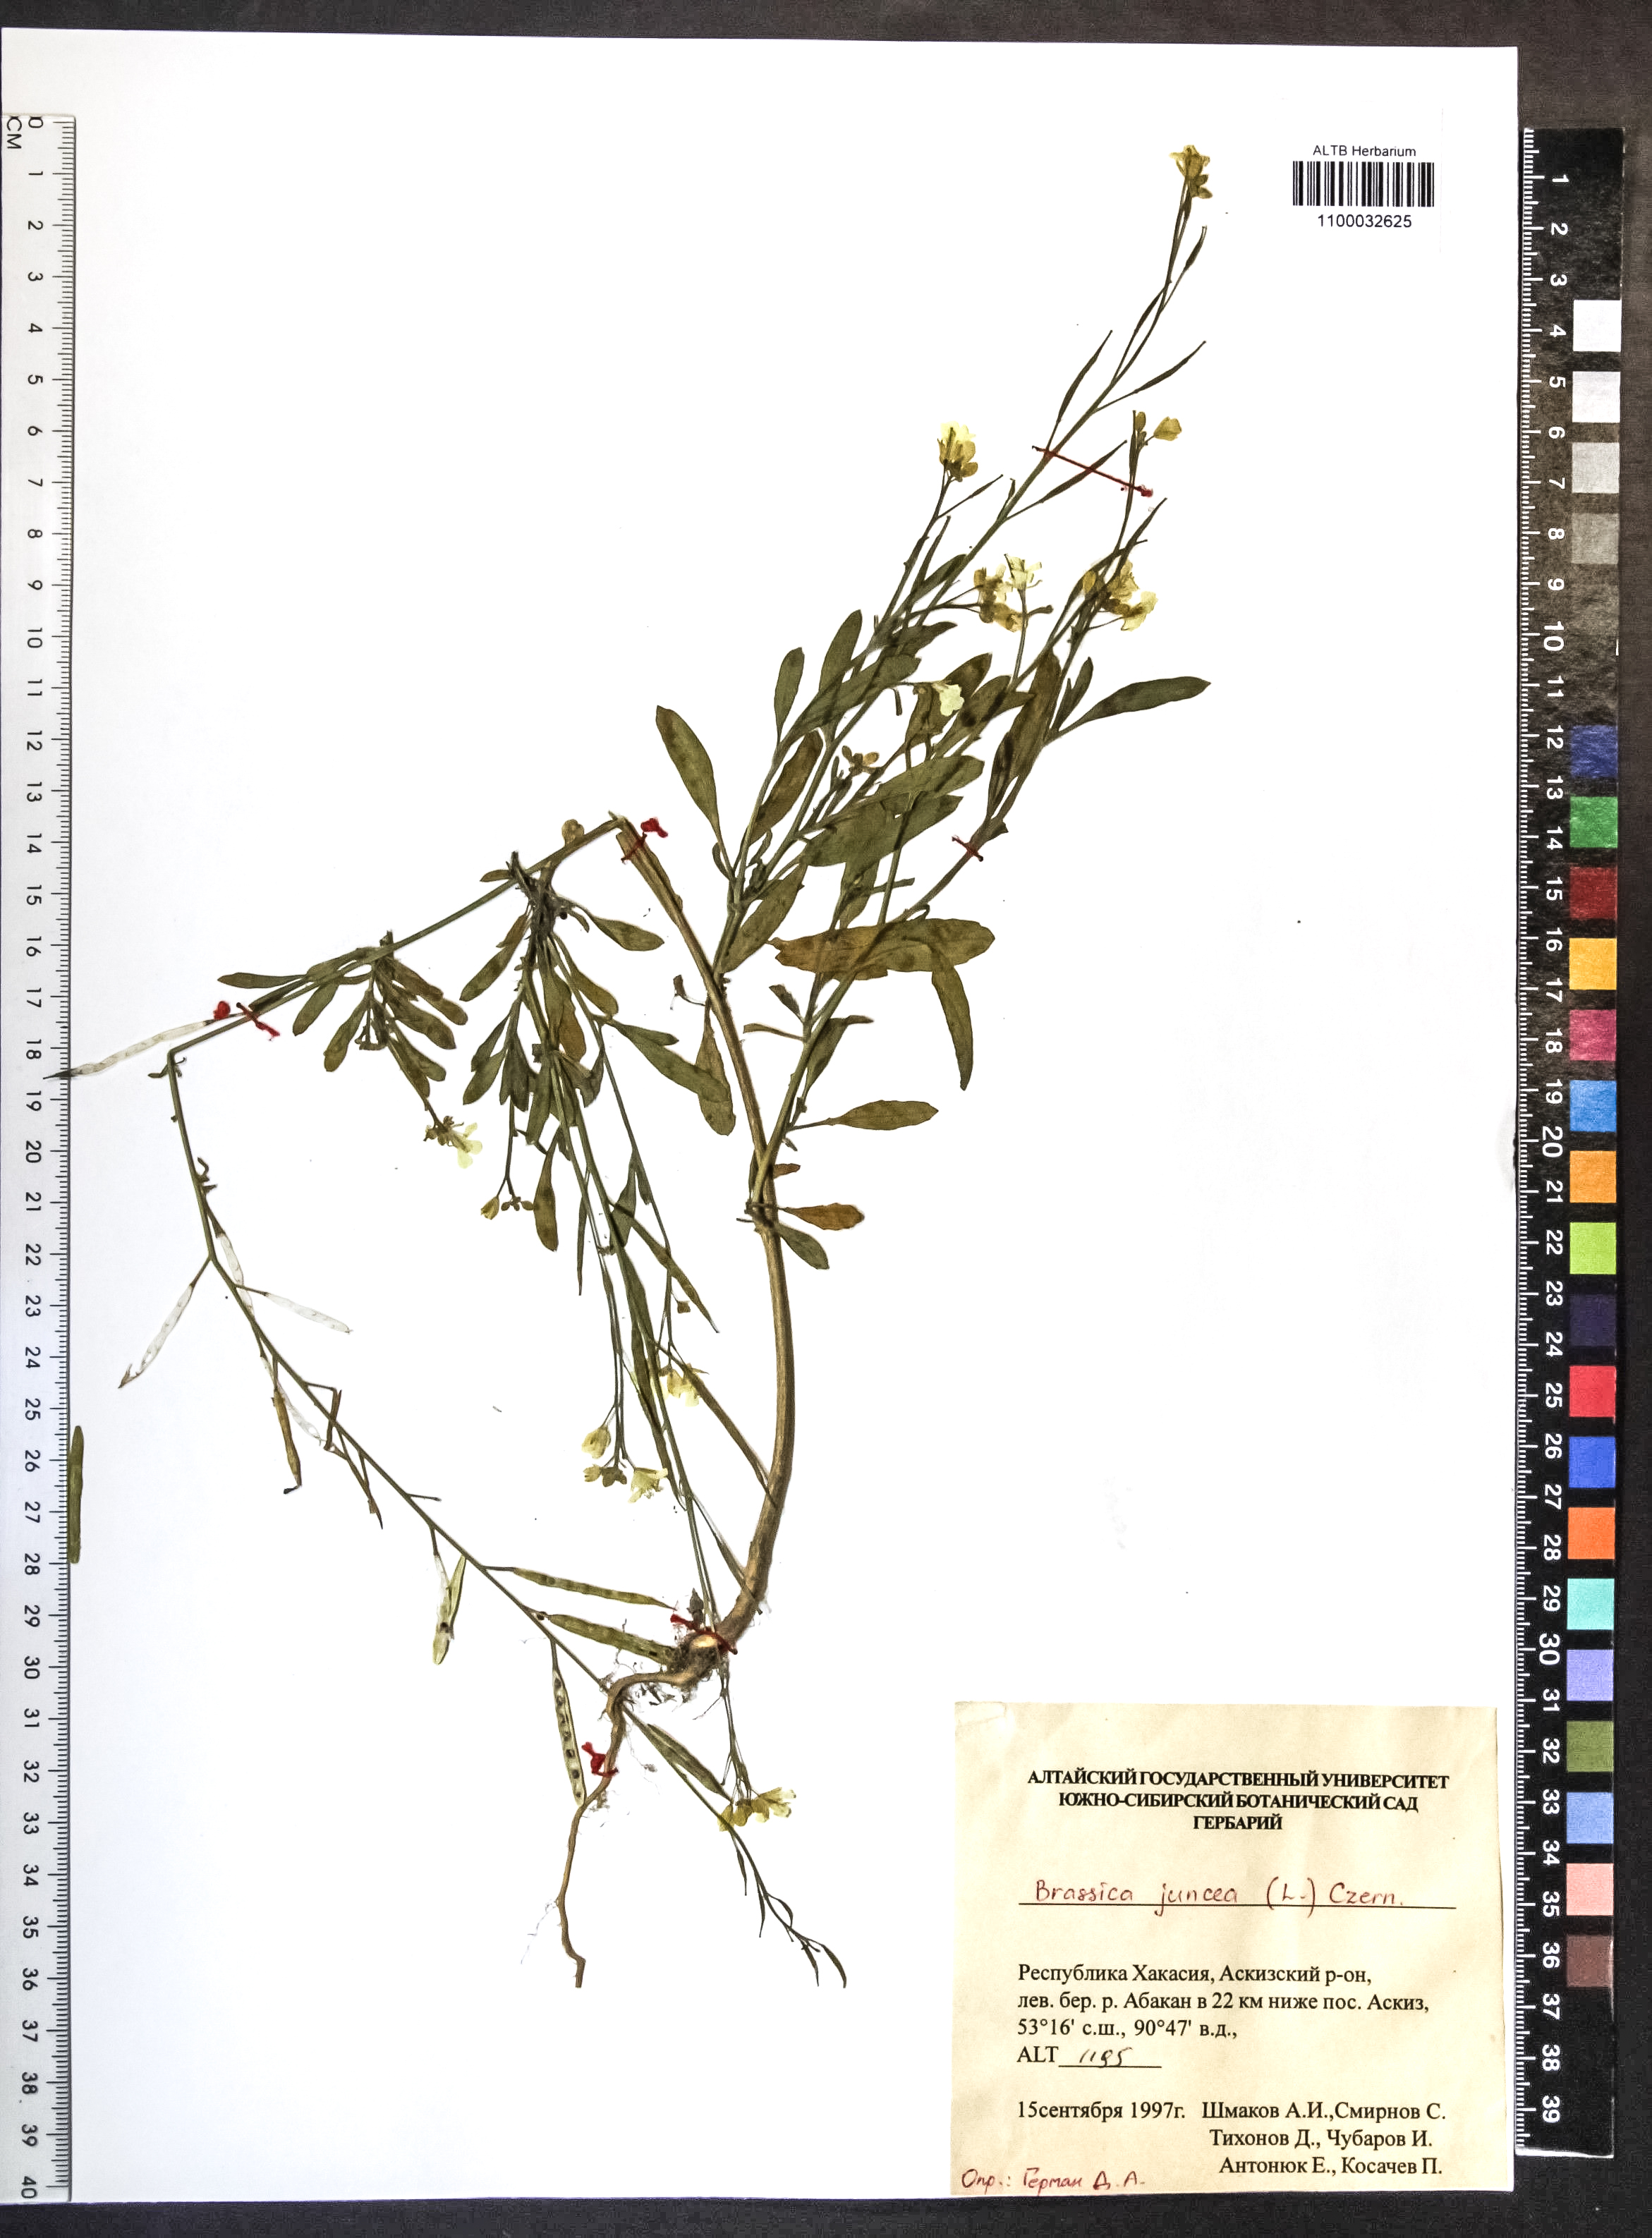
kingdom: Plantae
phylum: Tracheophyta
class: Magnoliopsida
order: Brassicales
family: Brassicaceae
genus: Brassica
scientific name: Brassica juncea
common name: Brown mustard
